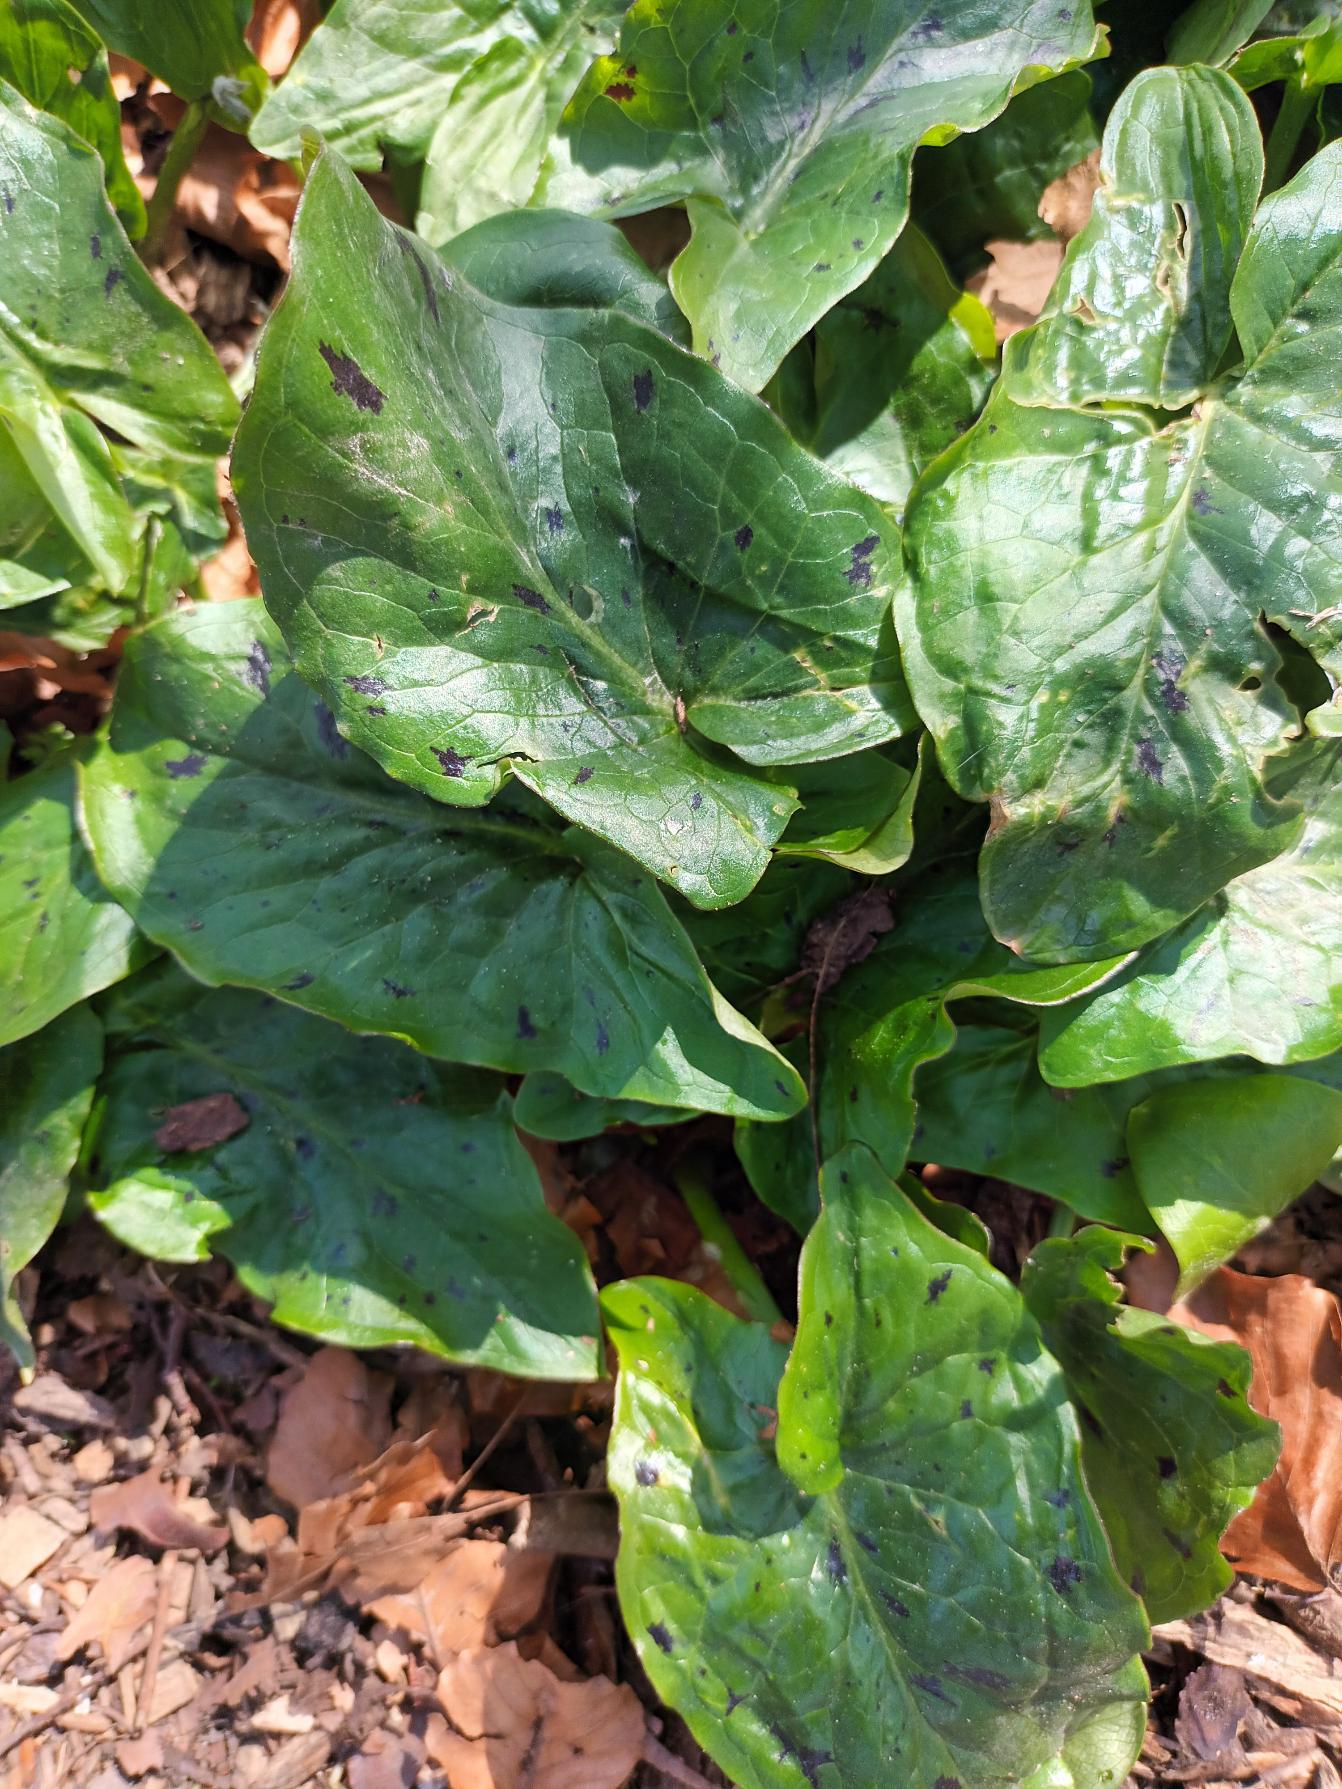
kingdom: Plantae
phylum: Tracheophyta
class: Liliopsida
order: Alismatales
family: Araceae
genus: Arum
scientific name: Arum maculatum
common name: Plettet arum
